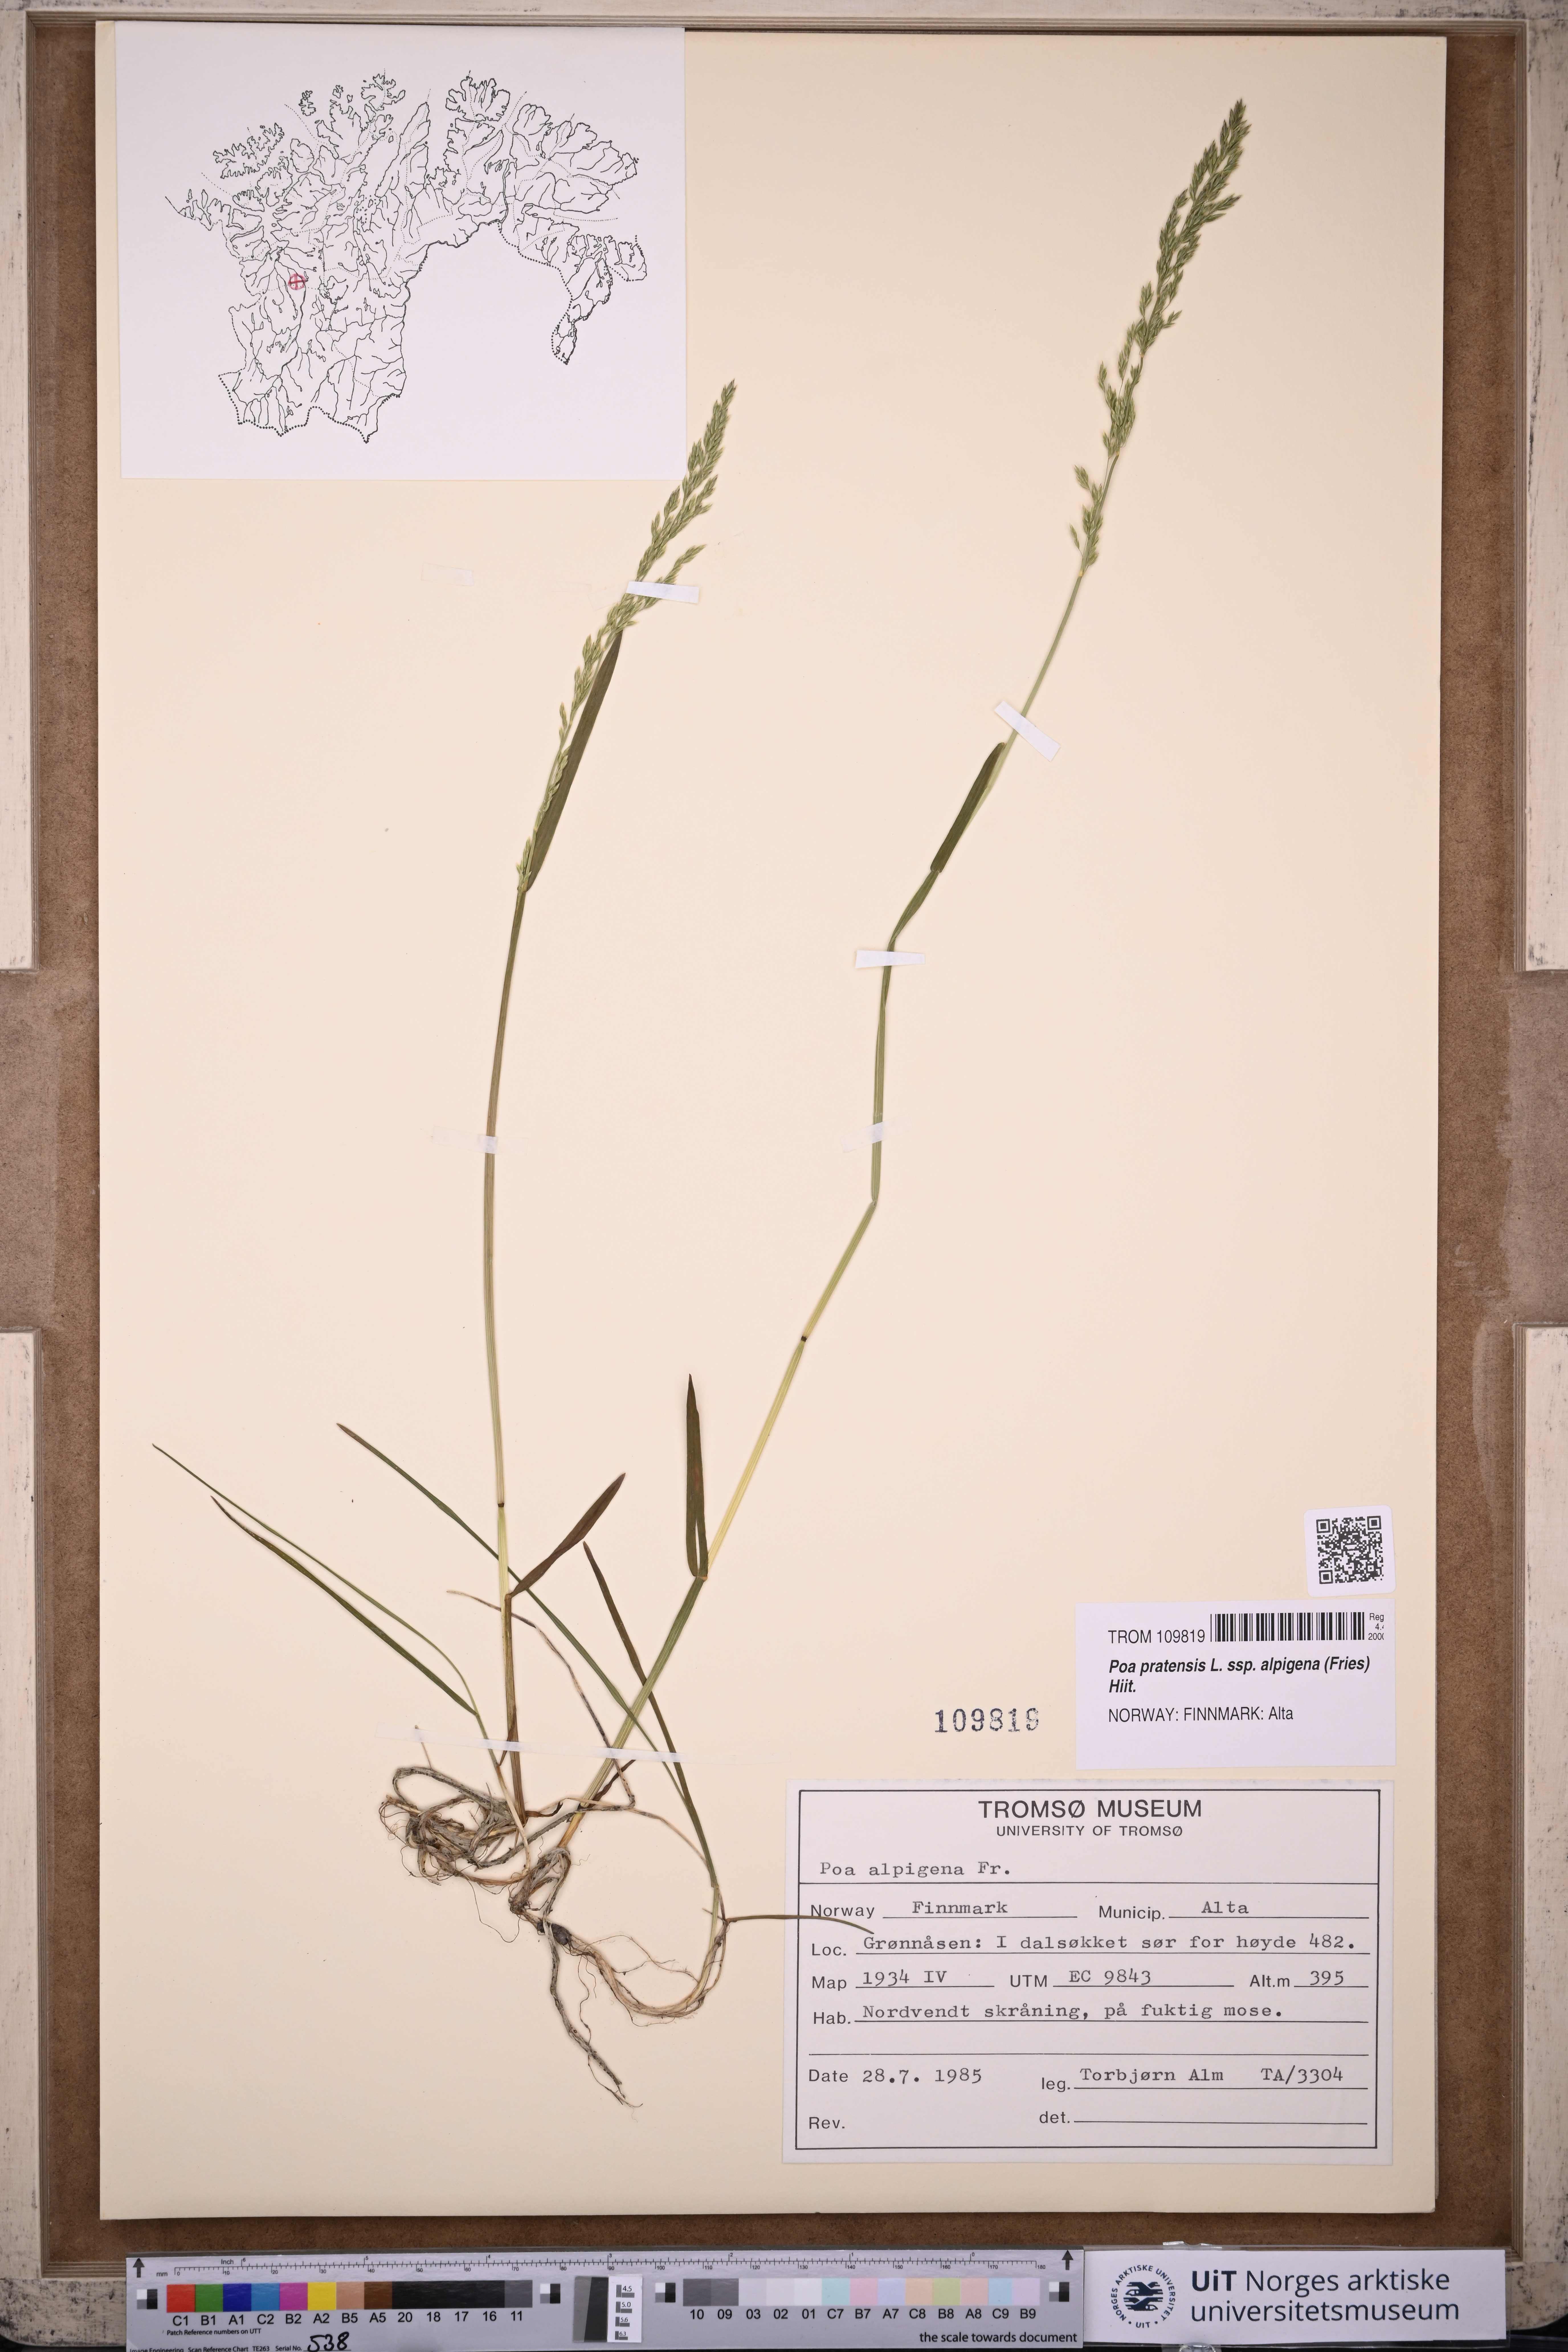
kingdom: Plantae
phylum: Tracheophyta
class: Liliopsida
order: Poales
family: Poaceae
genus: Poa
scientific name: Poa alpigena
